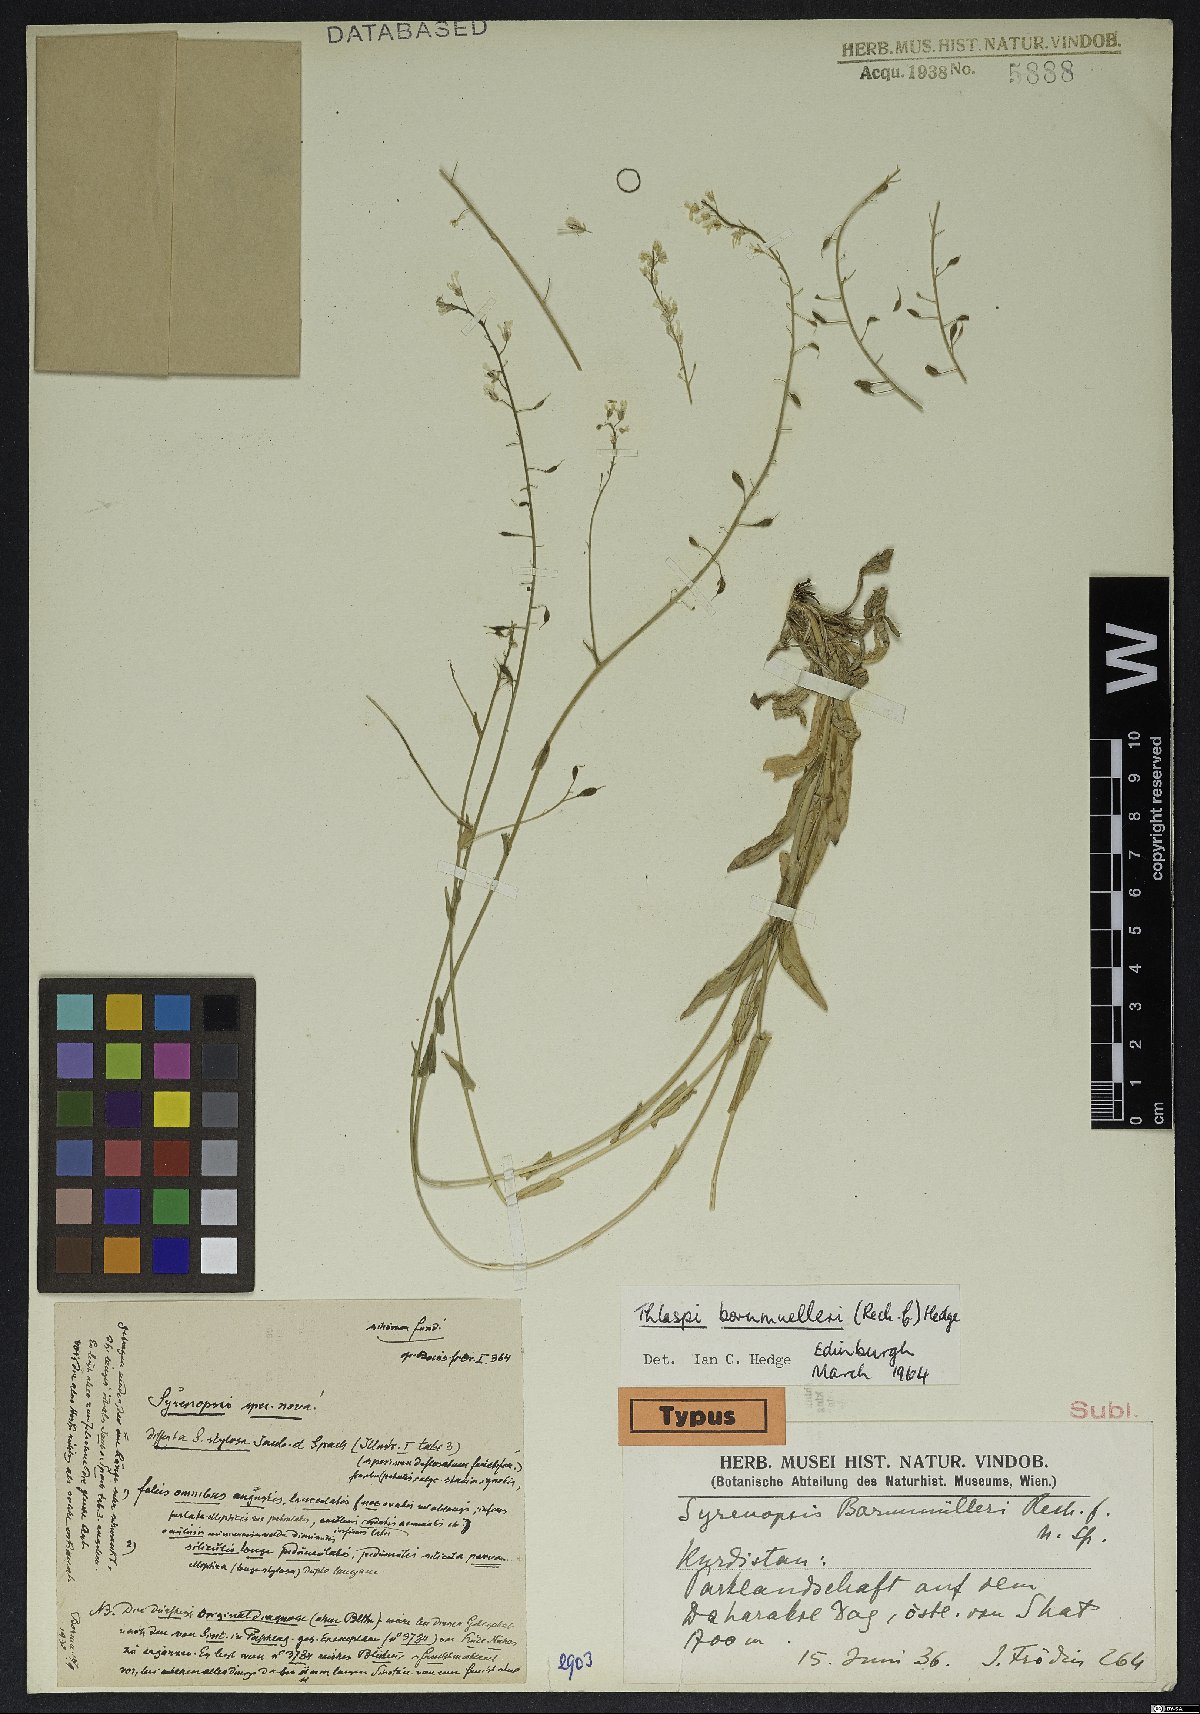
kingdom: Plantae
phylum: Tracheophyta
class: Magnoliopsida
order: Brassicales
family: Brassicaceae
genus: Noccaea
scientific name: Noccaea bornmuelleri
